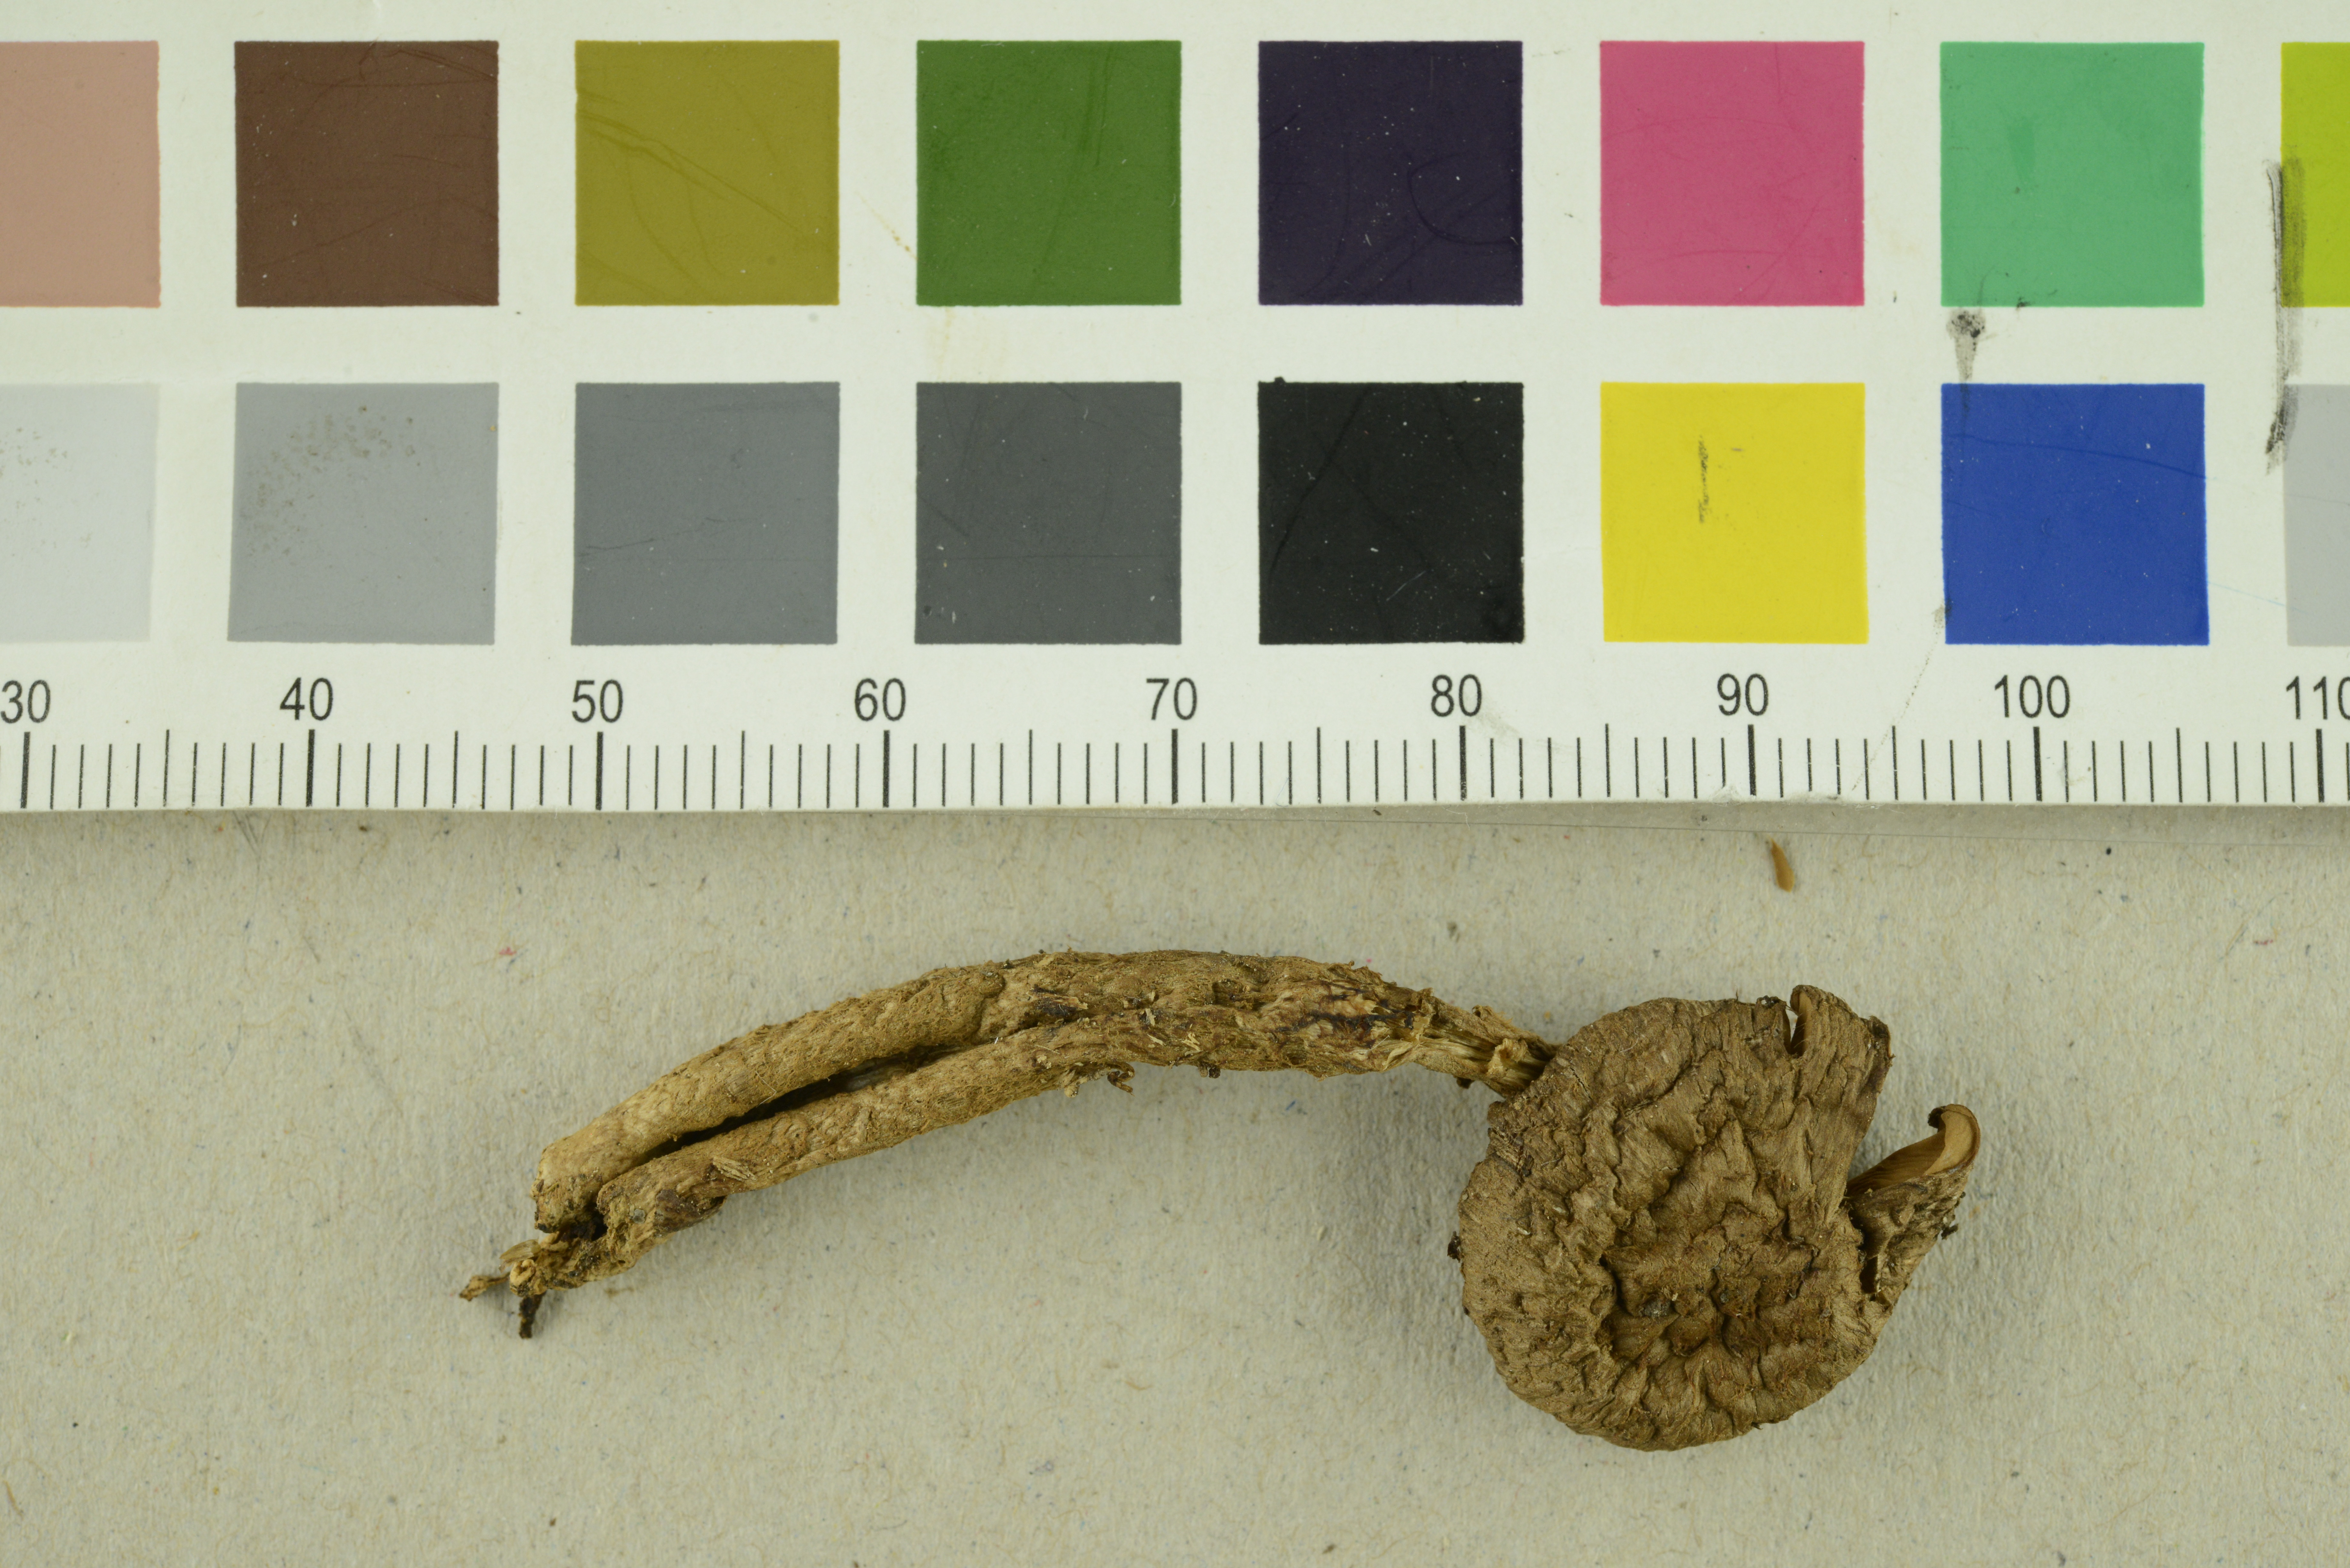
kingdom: Fungi
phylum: Basidiomycota
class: Agaricomycetes
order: Agaricales
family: Inocybaceae
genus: Inocybe
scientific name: Inocybe stellatospora
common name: Woolly fibrecap
